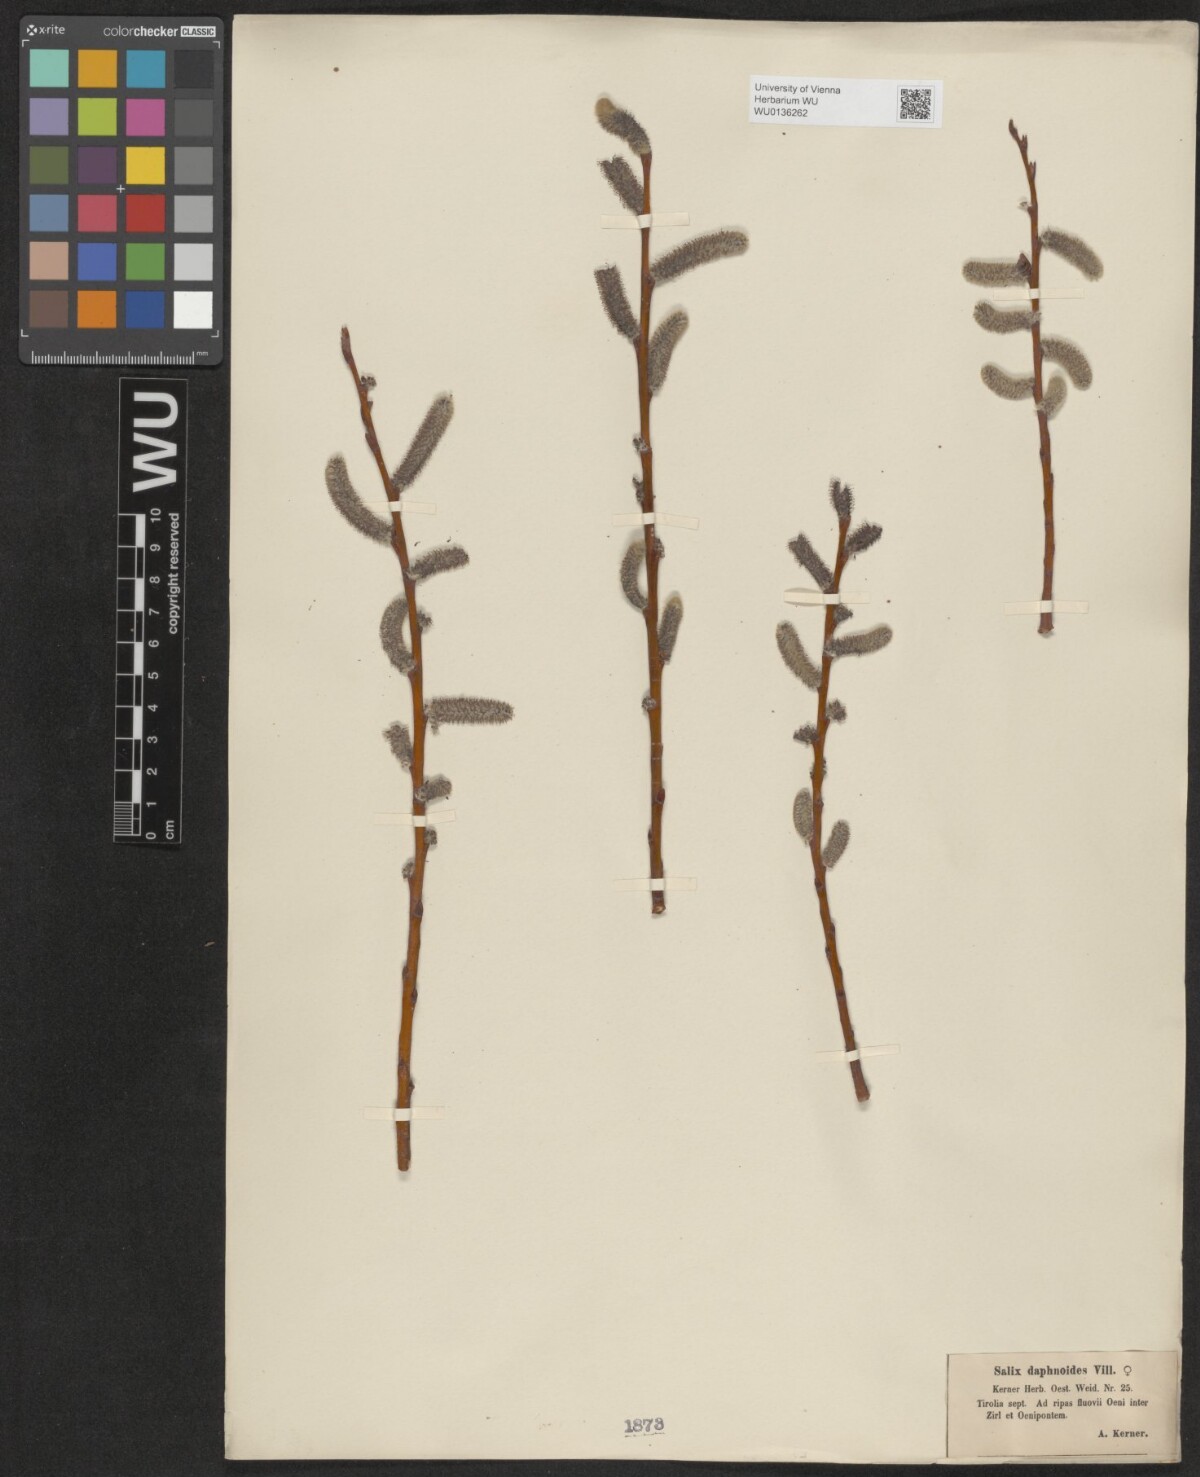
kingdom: Plantae
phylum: Tracheophyta
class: Magnoliopsida
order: Malpighiales
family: Salicaceae
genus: Salix
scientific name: Salix daphnoides
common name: European violet-willow
